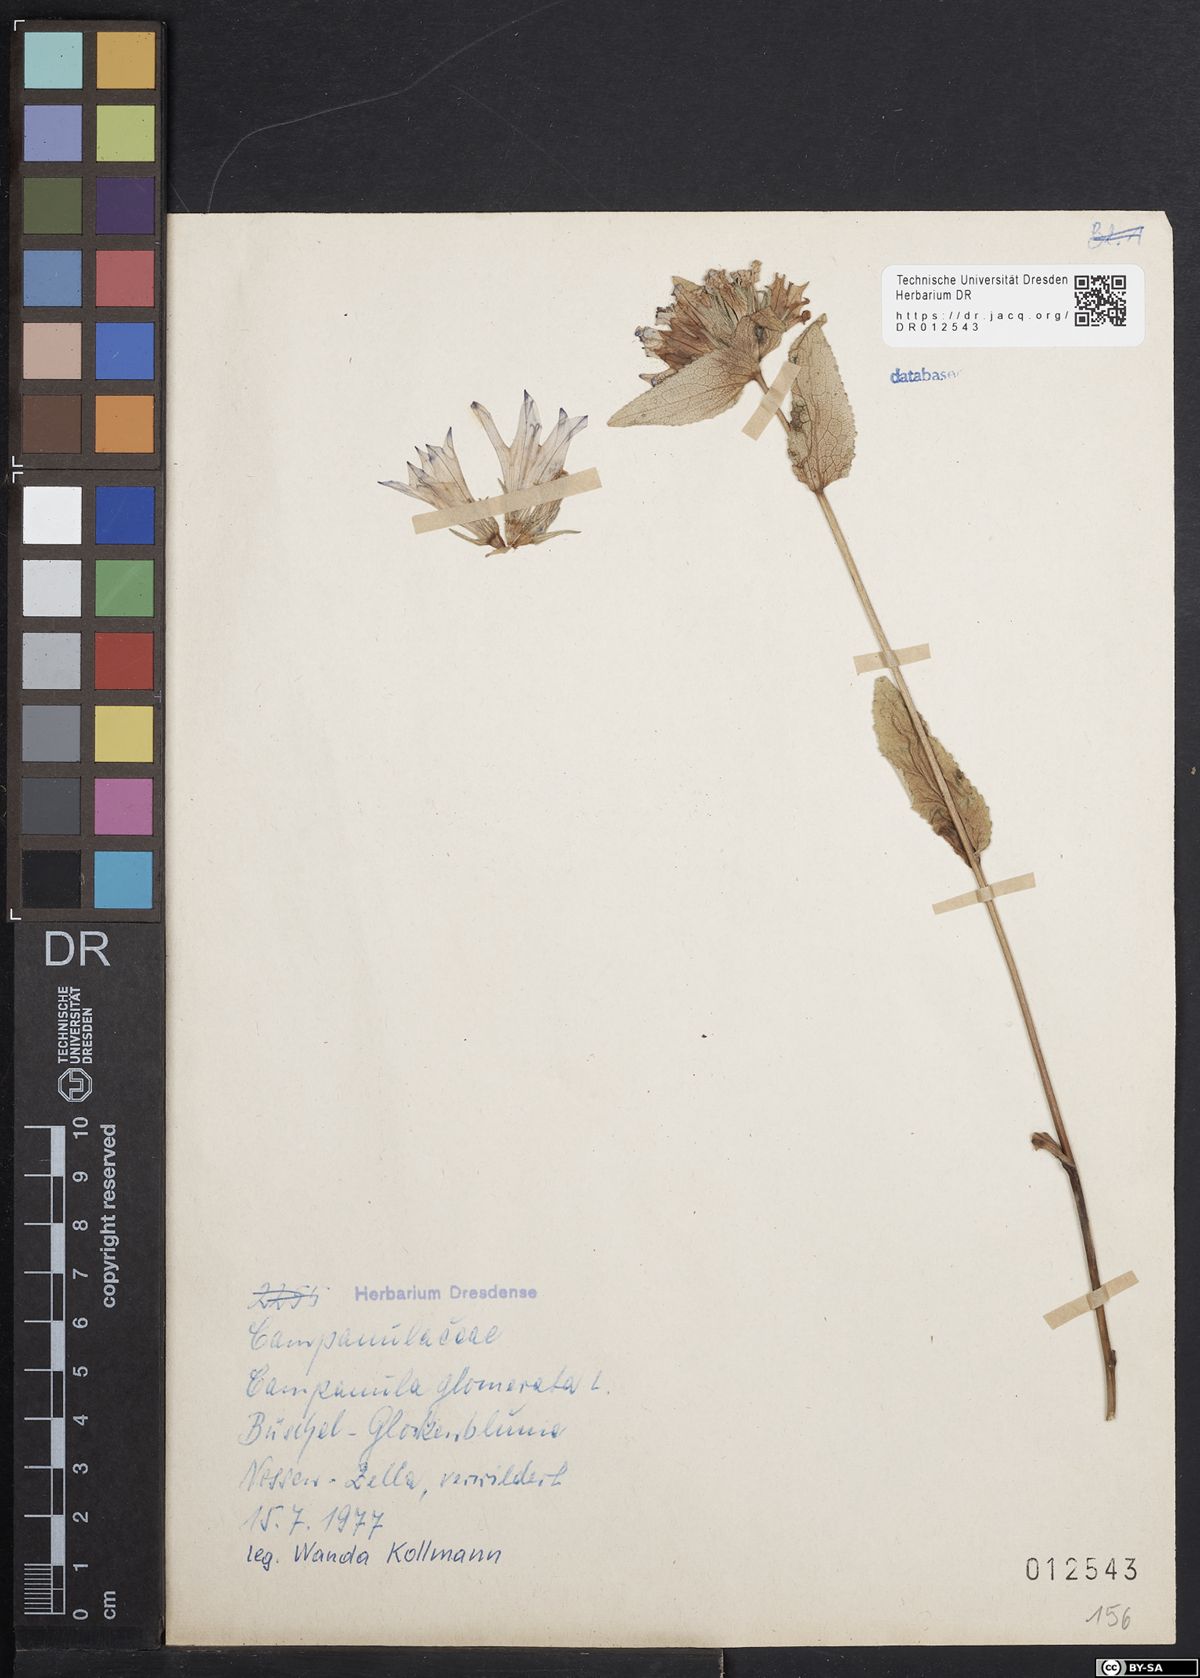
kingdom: Plantae
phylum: Tracheophyta
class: Magnoliopsida
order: Asterales
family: Campanulaceae
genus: Campanula
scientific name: Campanula glomerata
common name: Clustered bellflower
